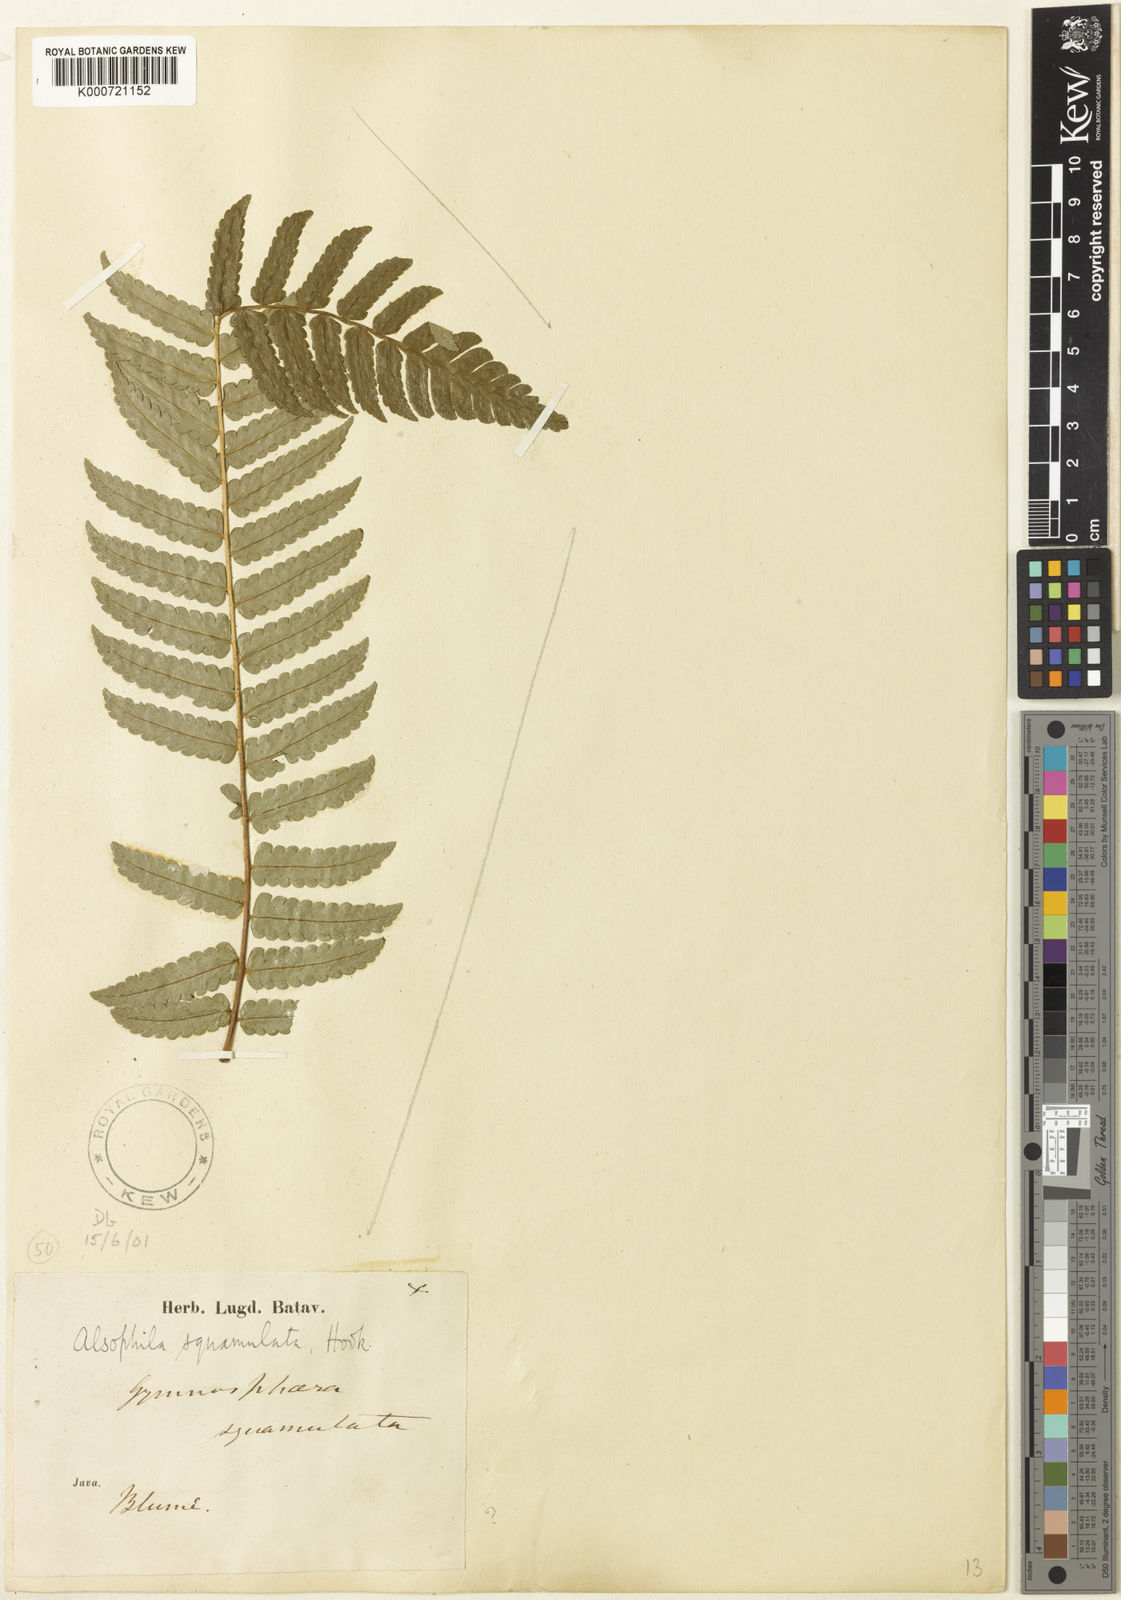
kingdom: Plantae
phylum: Tracheophyta
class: Polypodiopsida
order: Cyatheales
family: Cyatheaceae
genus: Sphaeropteris
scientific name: Sphaeropteris squamulata
